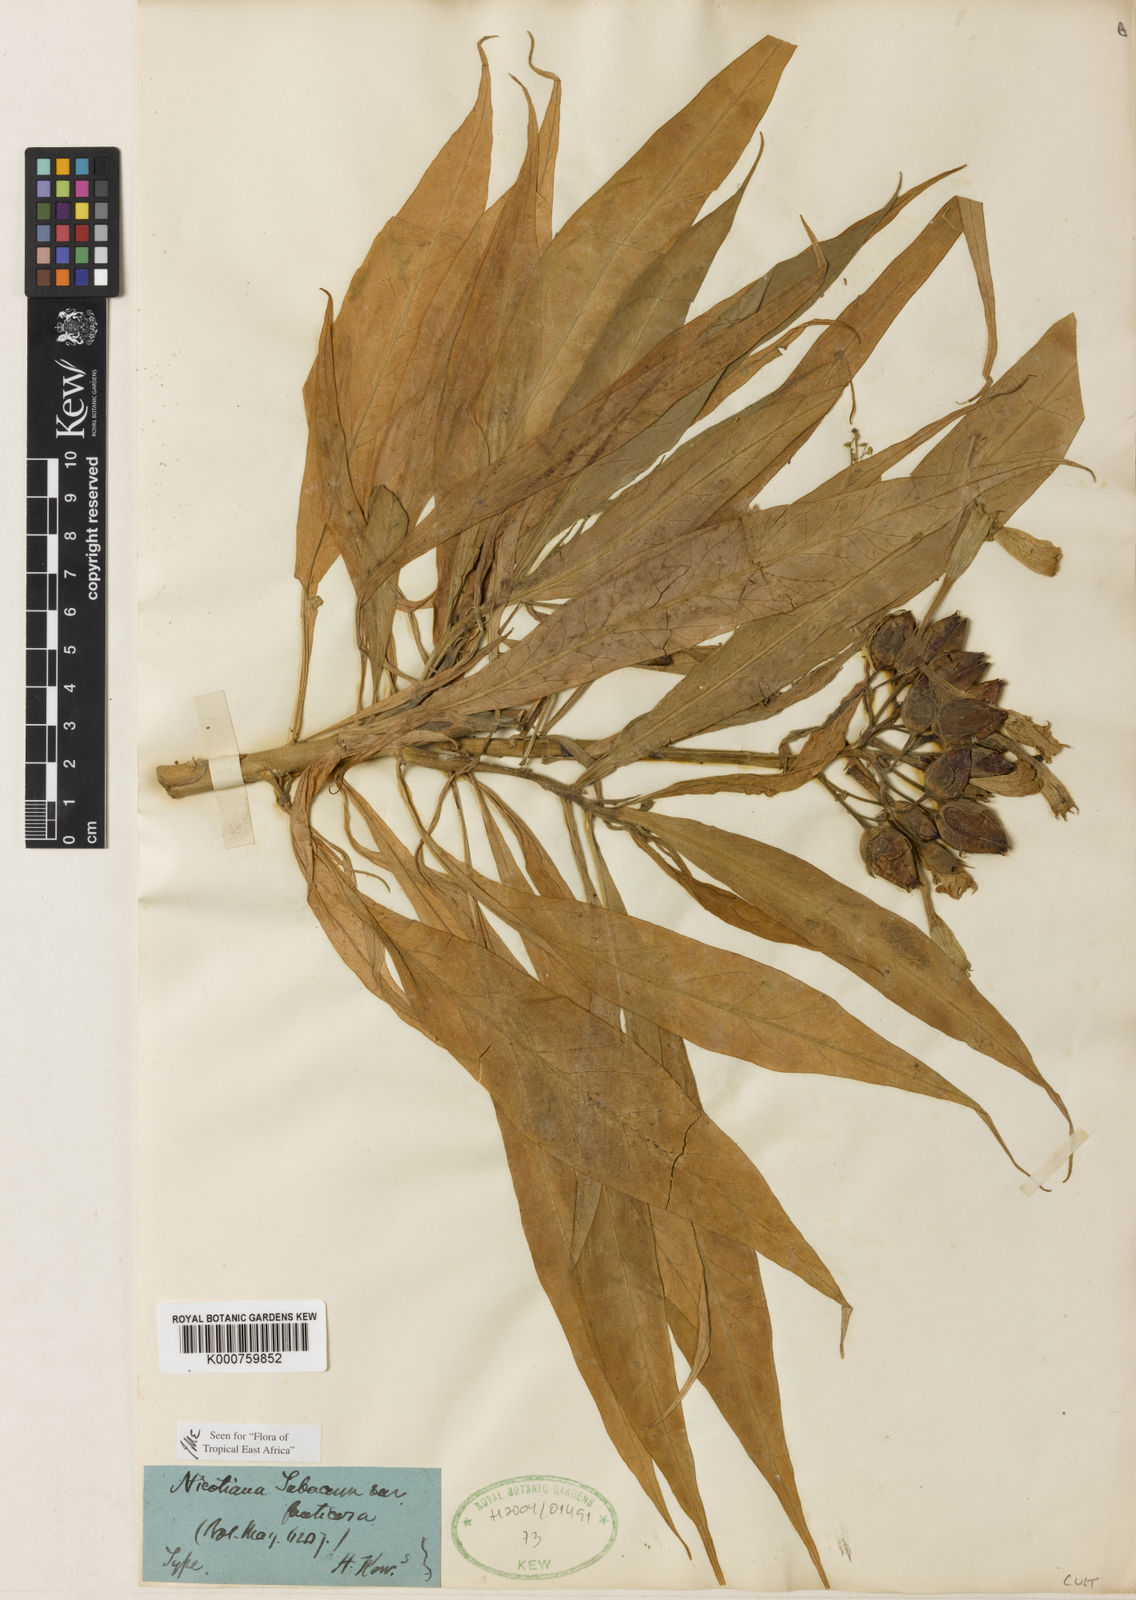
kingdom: Plantae
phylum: Tracheophyta
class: Magnoliopsida
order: Solanales
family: Solanaceae
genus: Nicotiana
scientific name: Nicotiana tabacum
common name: Tobacco
